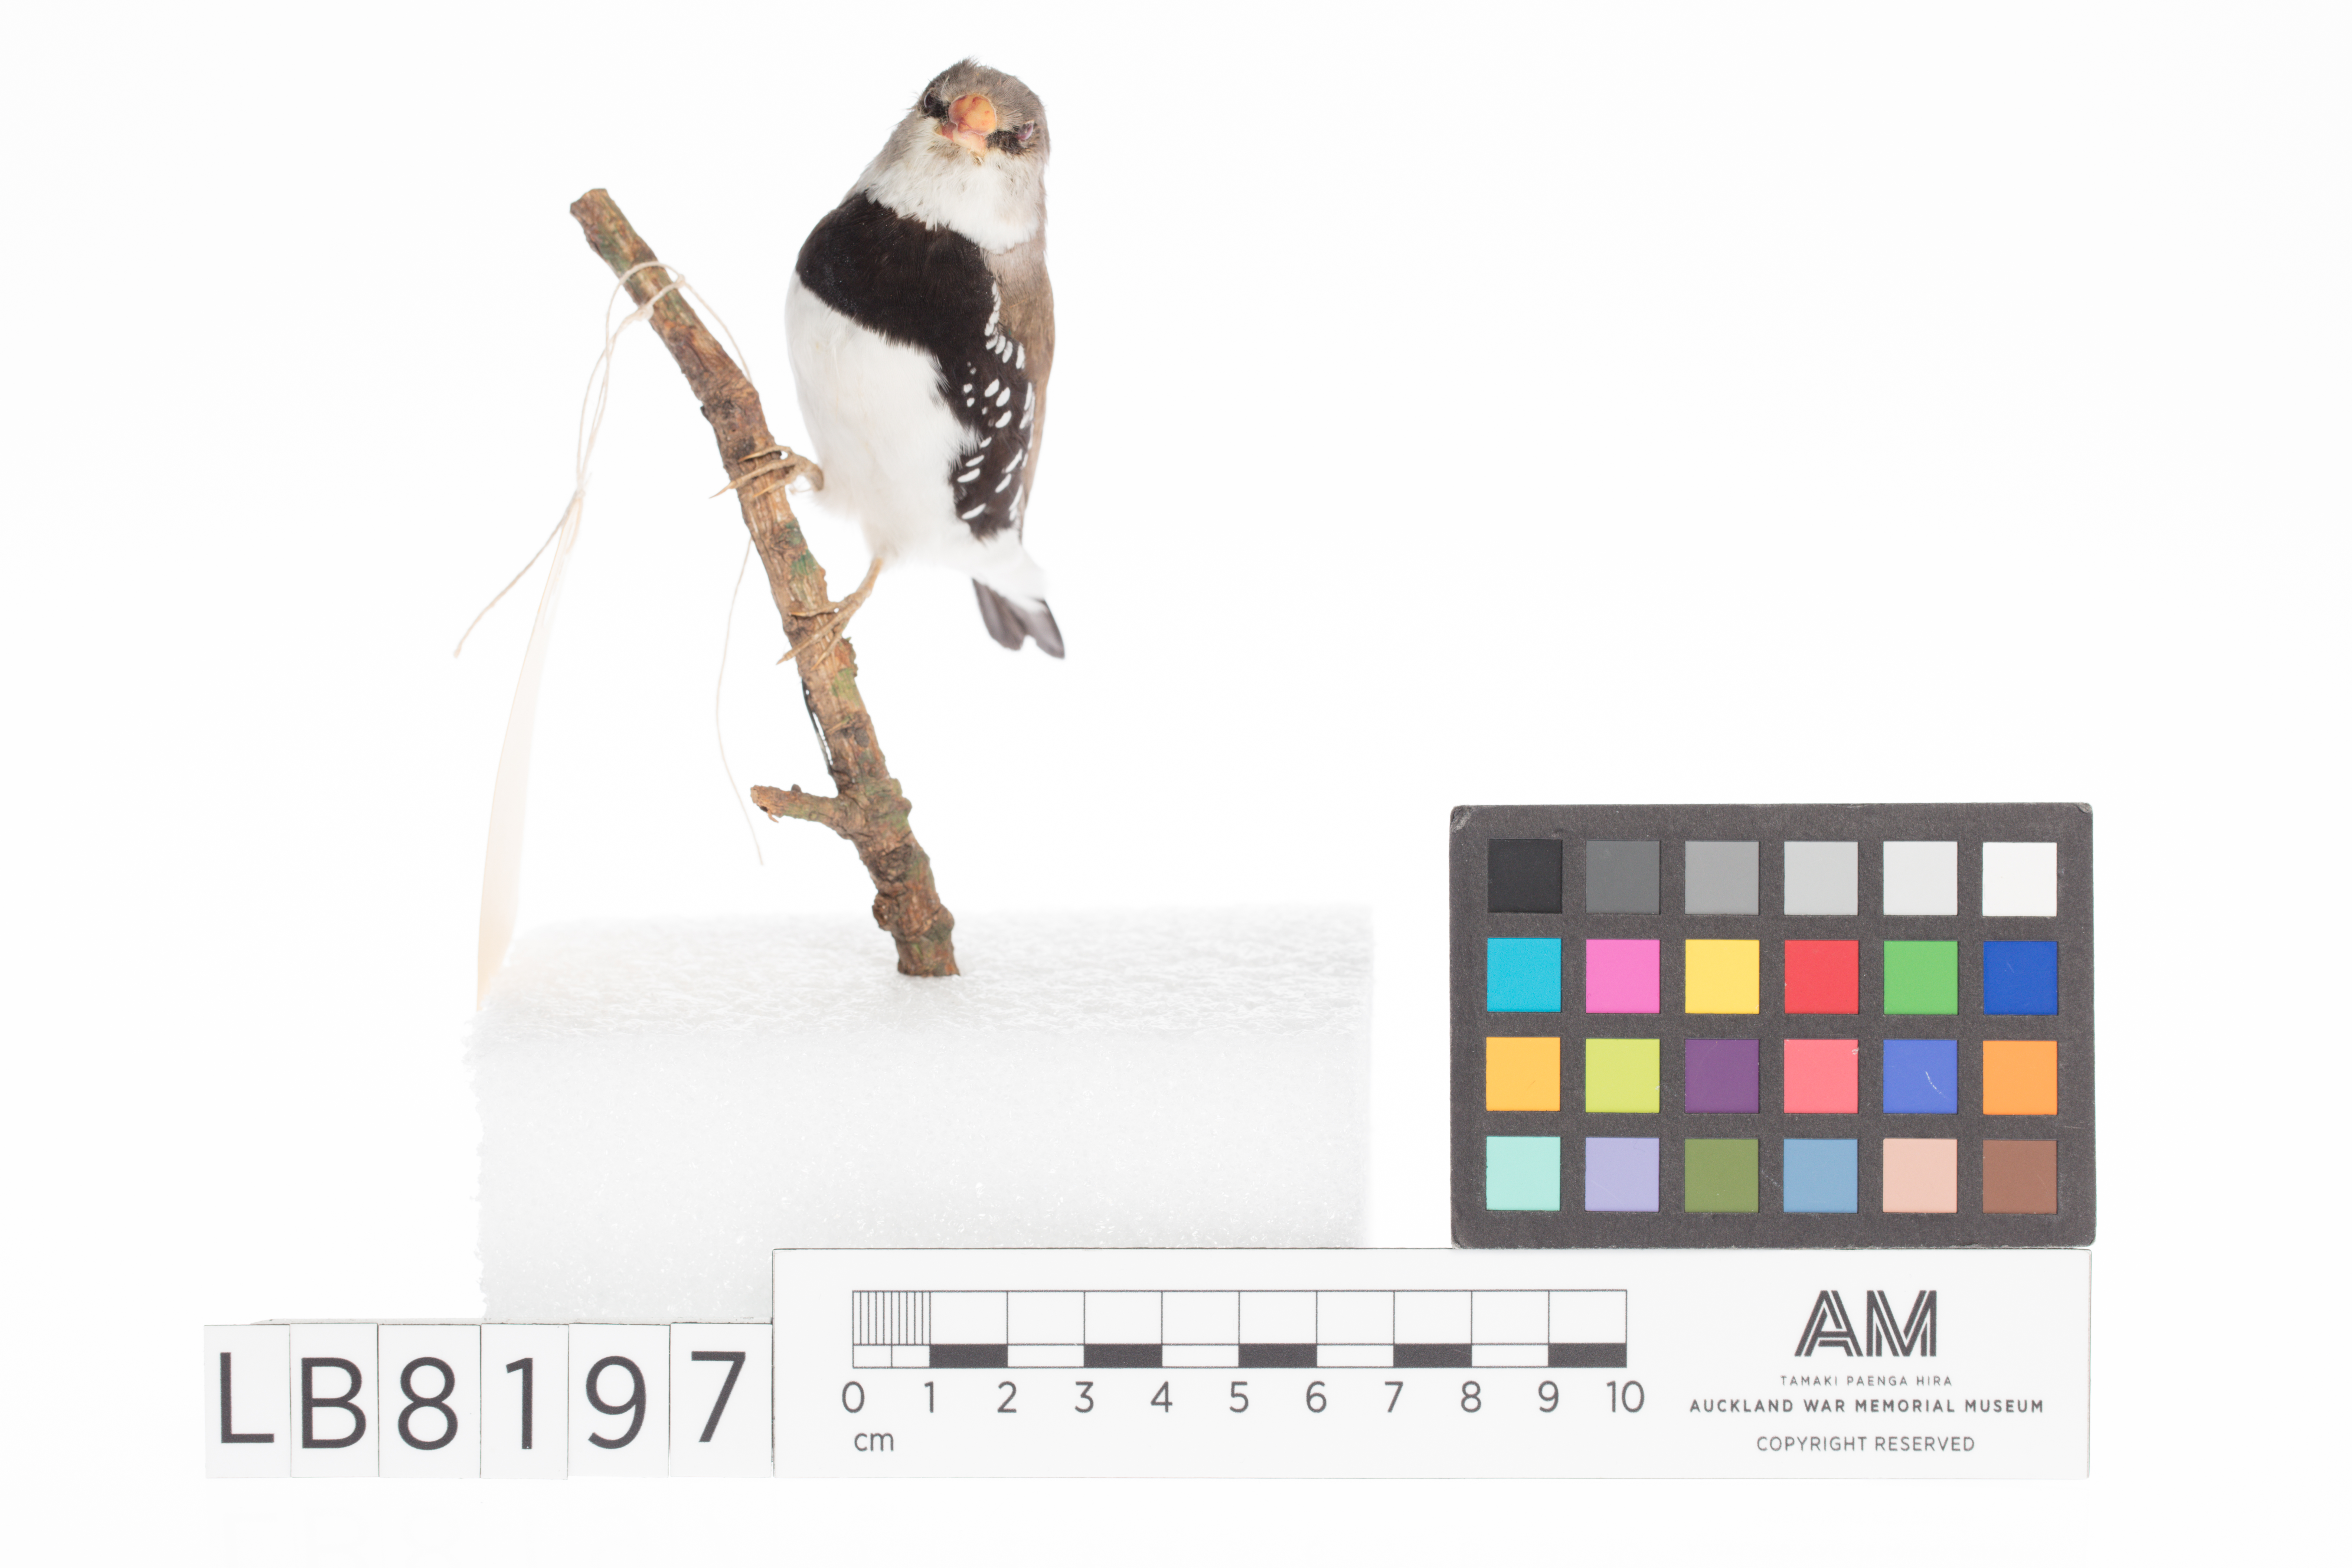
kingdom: Animalia
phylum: Chordata
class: Aves
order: Passeriformes
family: Estrildidae
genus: Emblema
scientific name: Emblema
